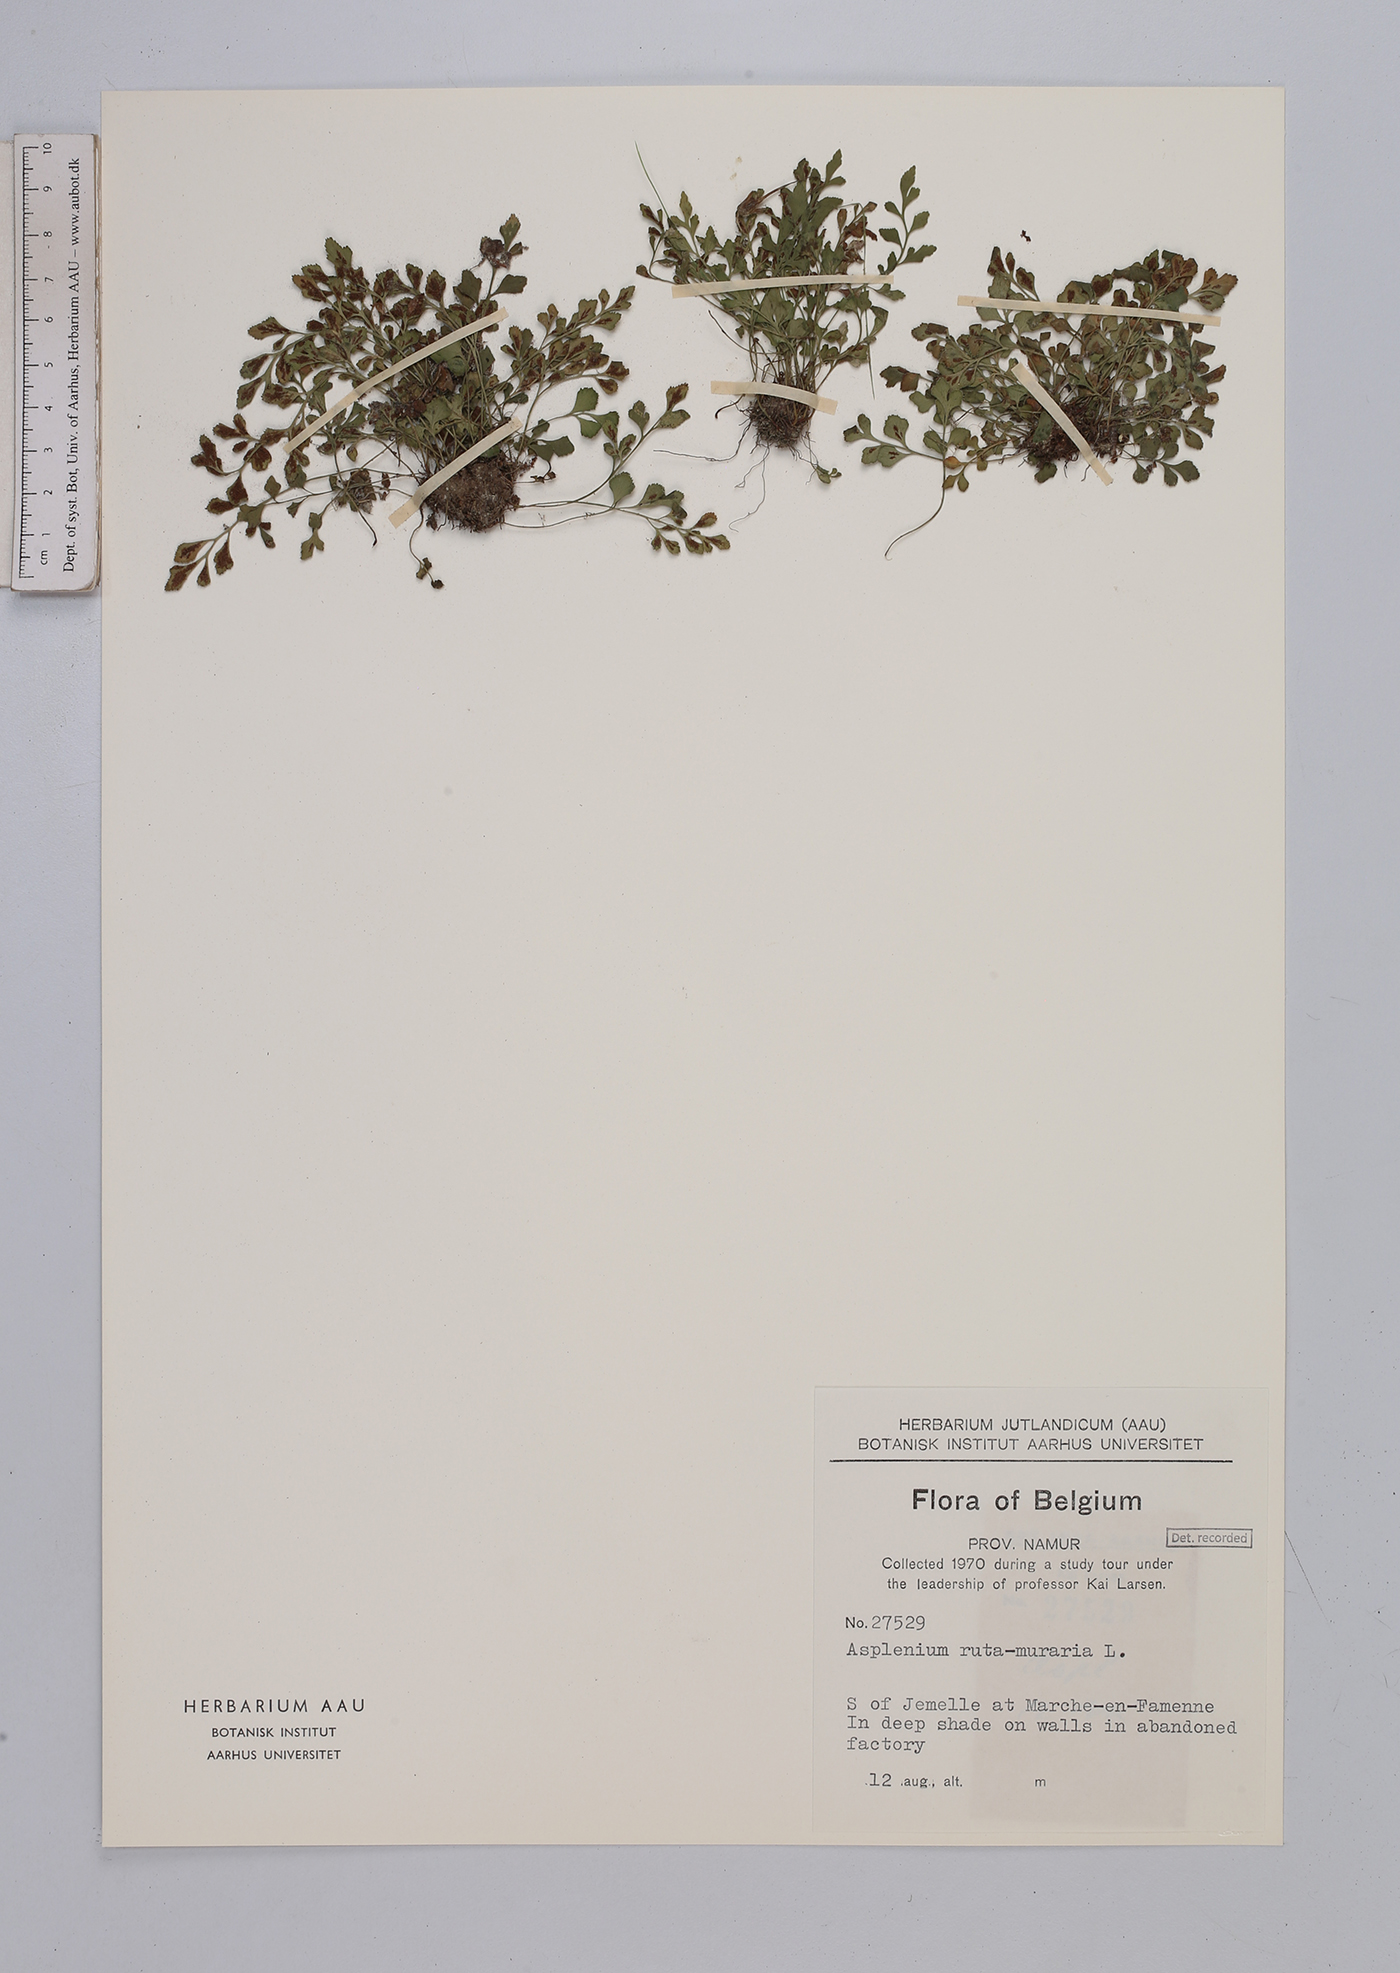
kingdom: Plantae
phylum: Tracheophyta
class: Polypodiopsida
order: Polypodiales
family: Aspleniaceae
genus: Asplenium
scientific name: Asplenium ruta-muraria
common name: Wall-rue
